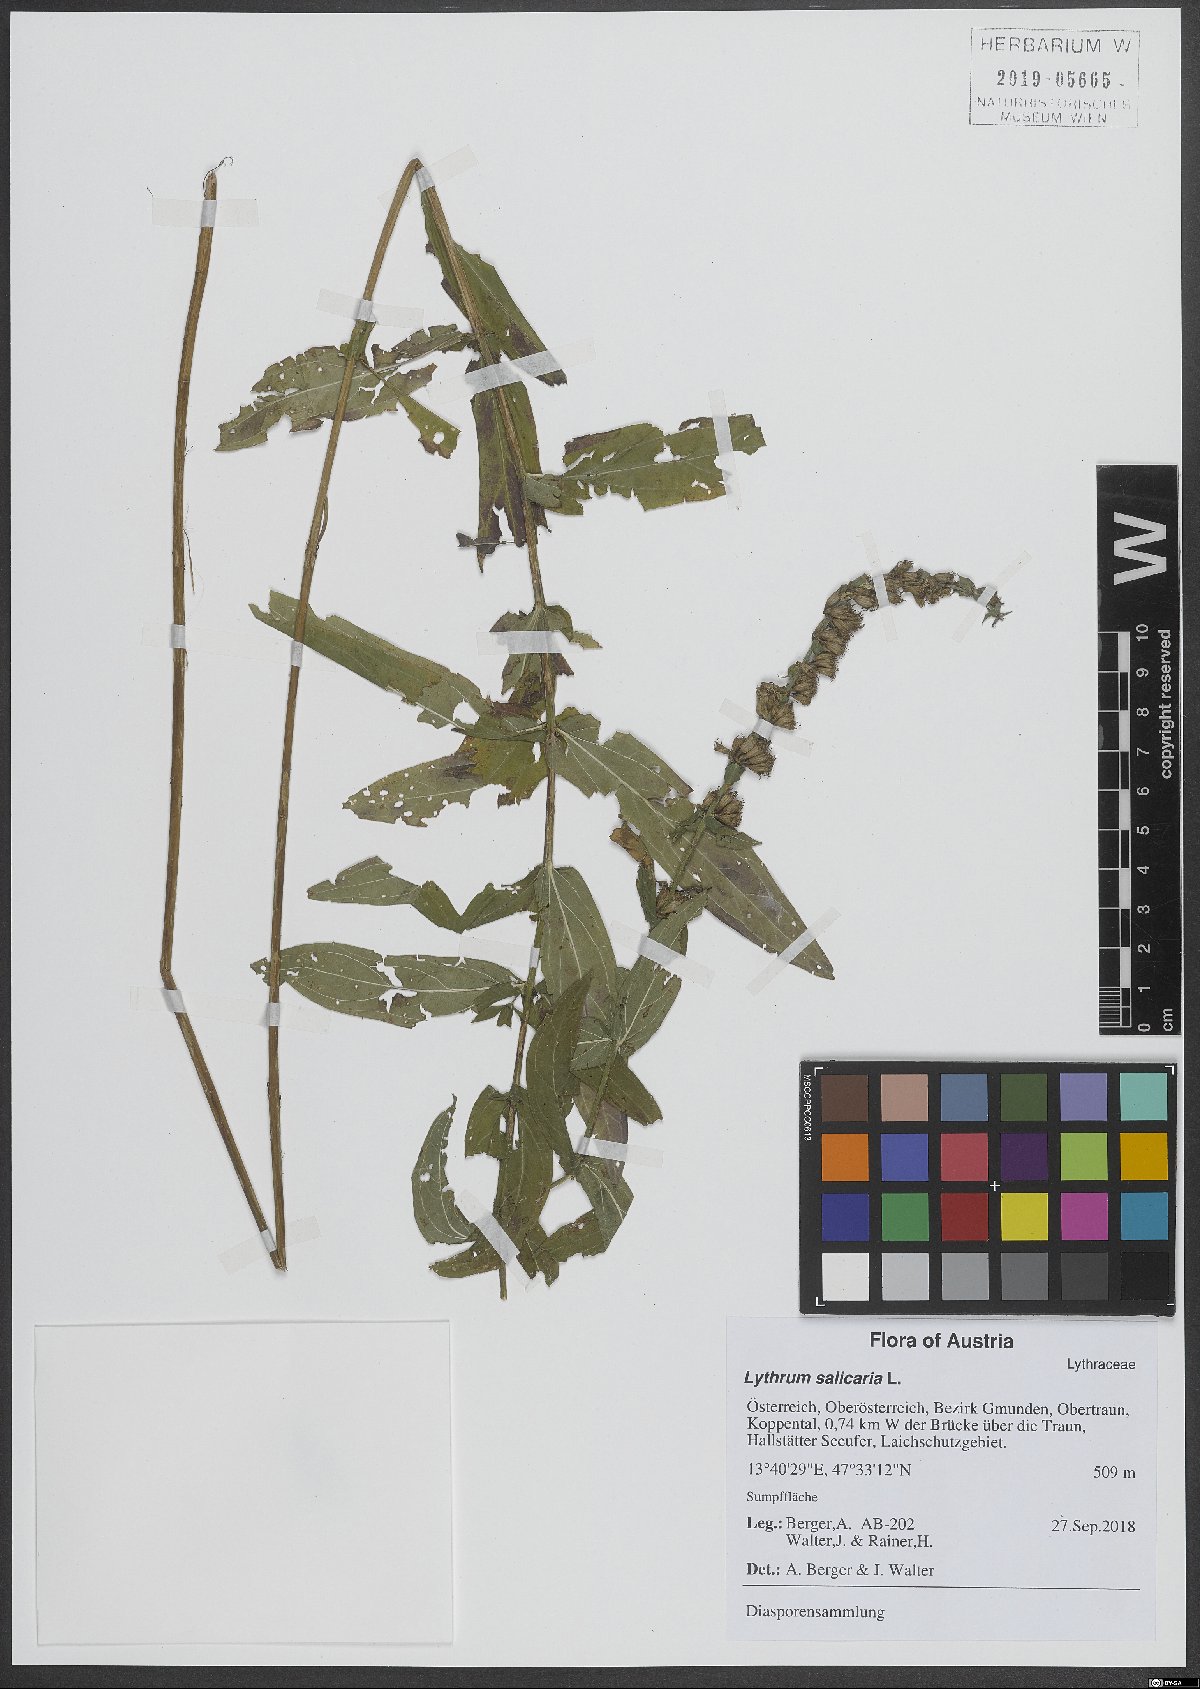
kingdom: Plantae
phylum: Tracheophyta
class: Magnoliopsida
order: Myrtales
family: Lythraceae
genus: Lythrum
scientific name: Lythrum salicaria
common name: Purple loosestrife
